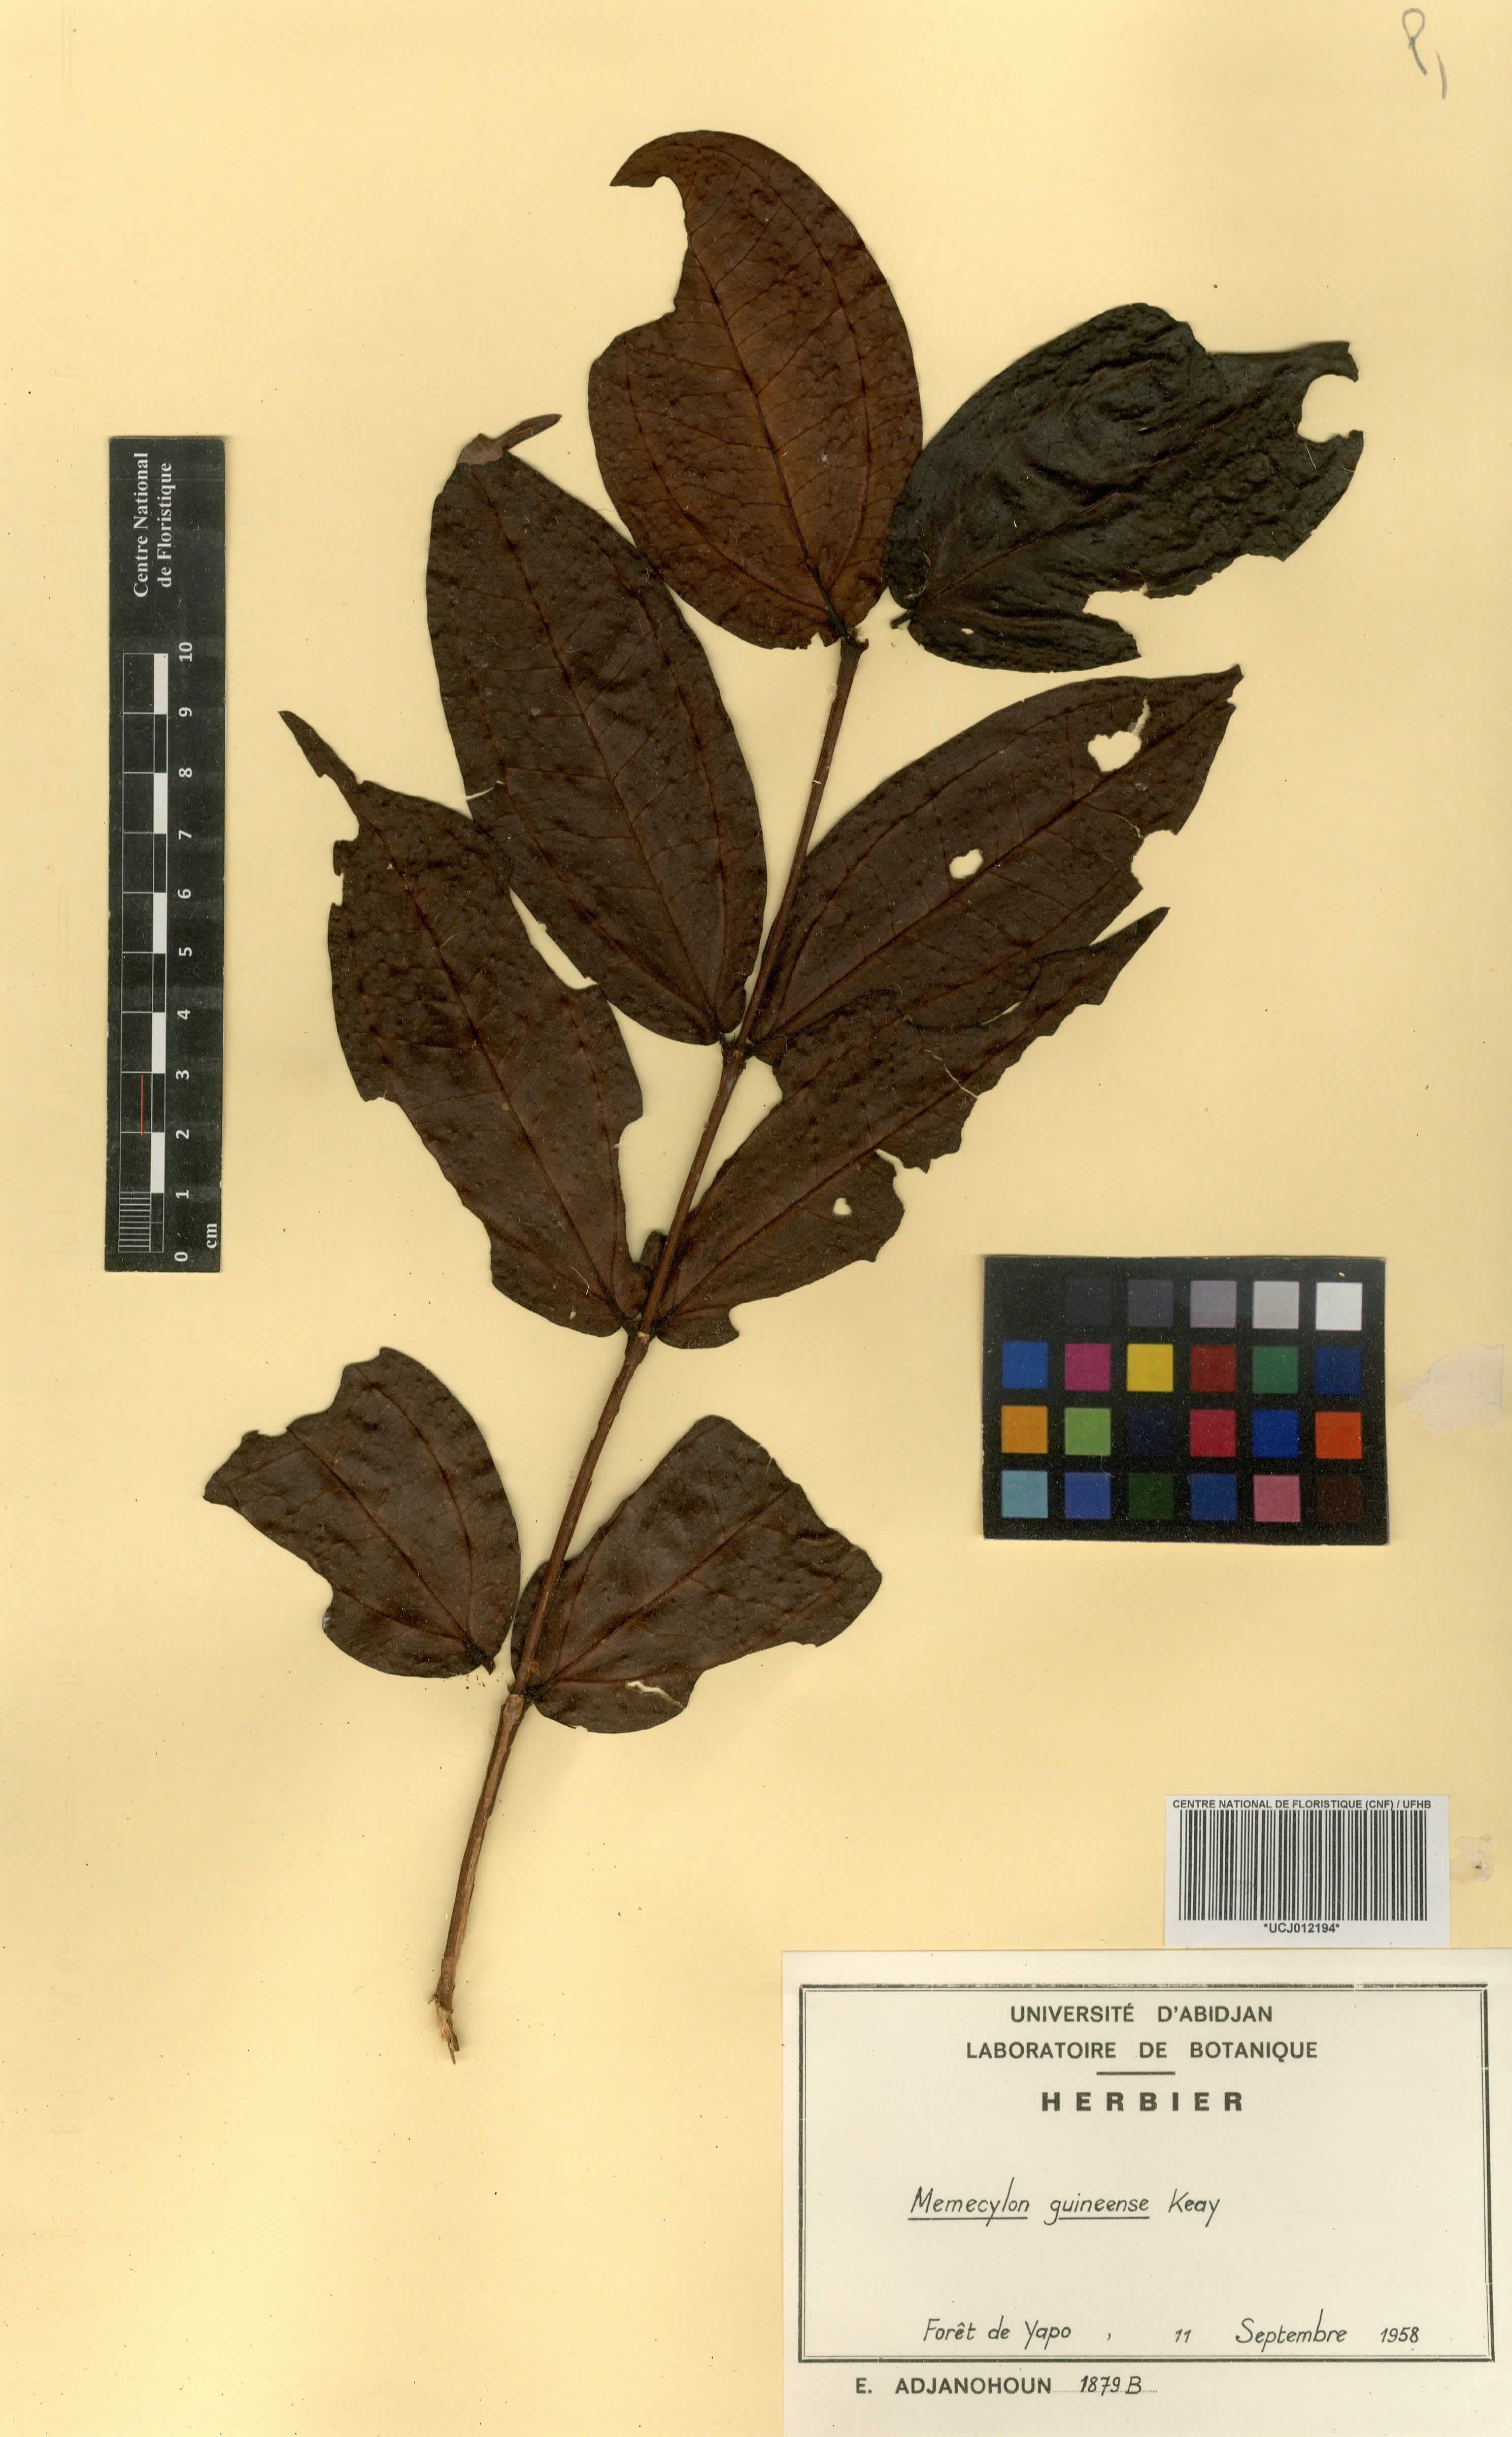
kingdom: Plantae
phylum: Tracheophyta
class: Magnoliopsida
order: Myrtales
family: Melastomataceae
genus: Warneckea
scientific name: Warneckea guineensis
